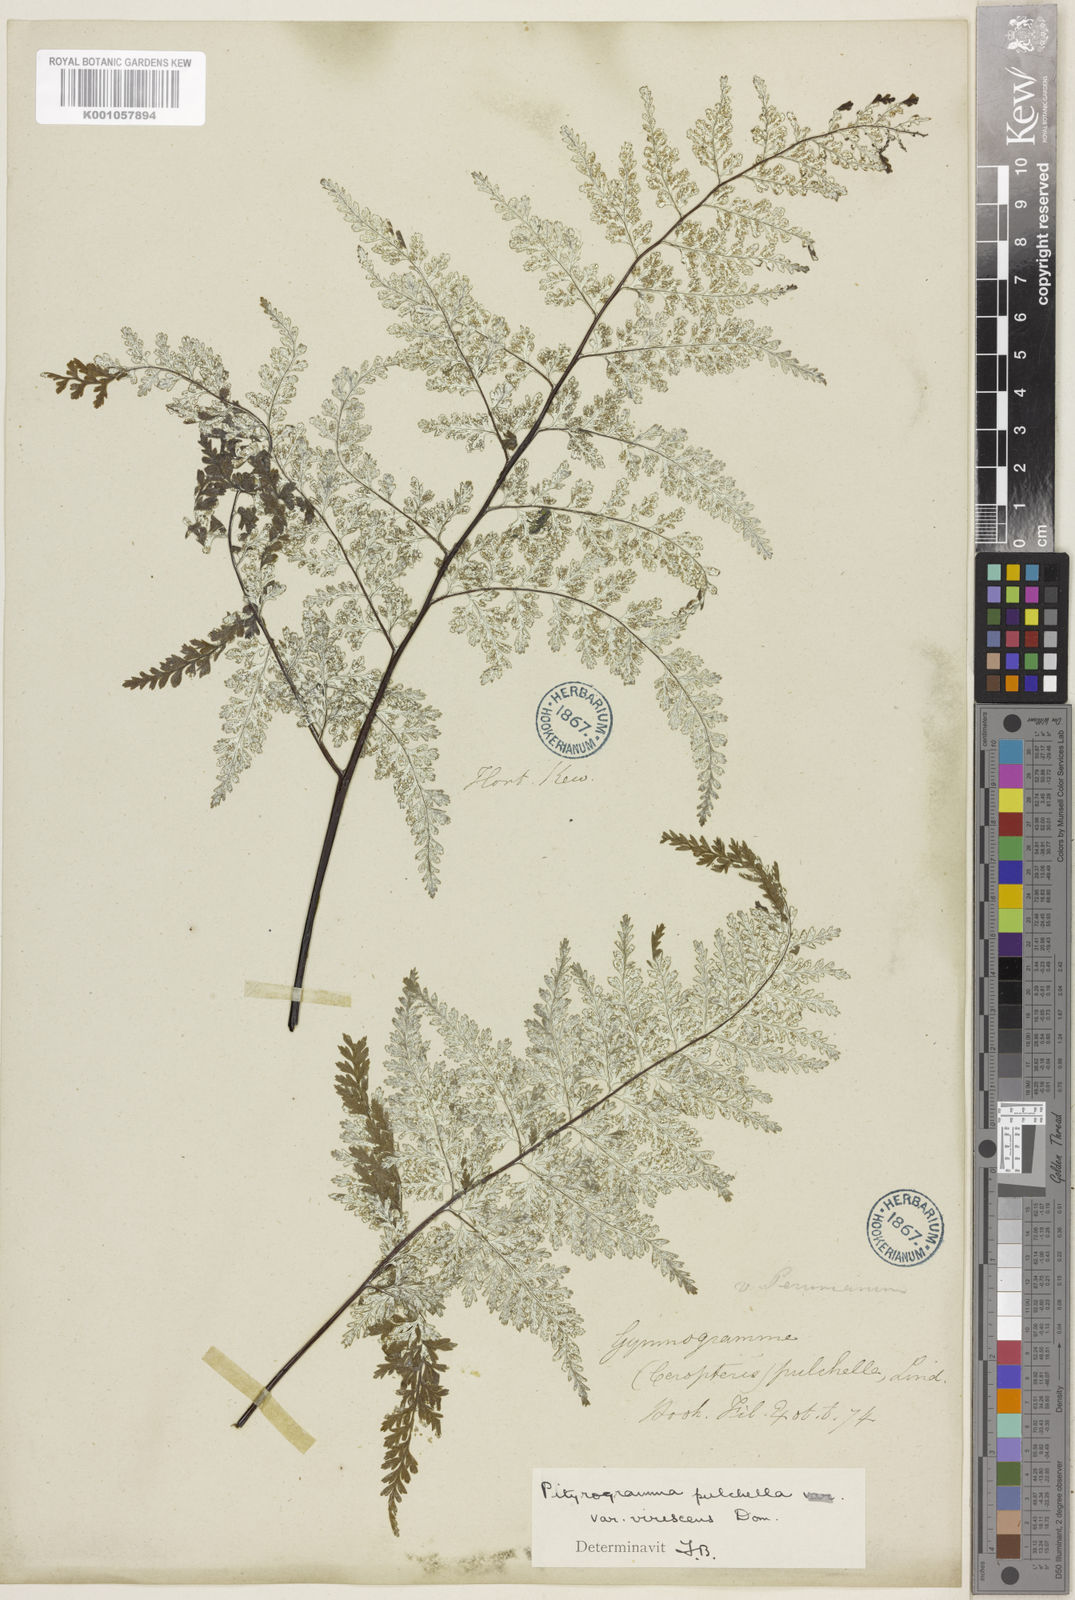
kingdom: Plantae
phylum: Tracheophyta
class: Polypodiopsida
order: Polypodiales
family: Pteridaceae
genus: Pityrogramma
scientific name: Pityrogramma pulchella
